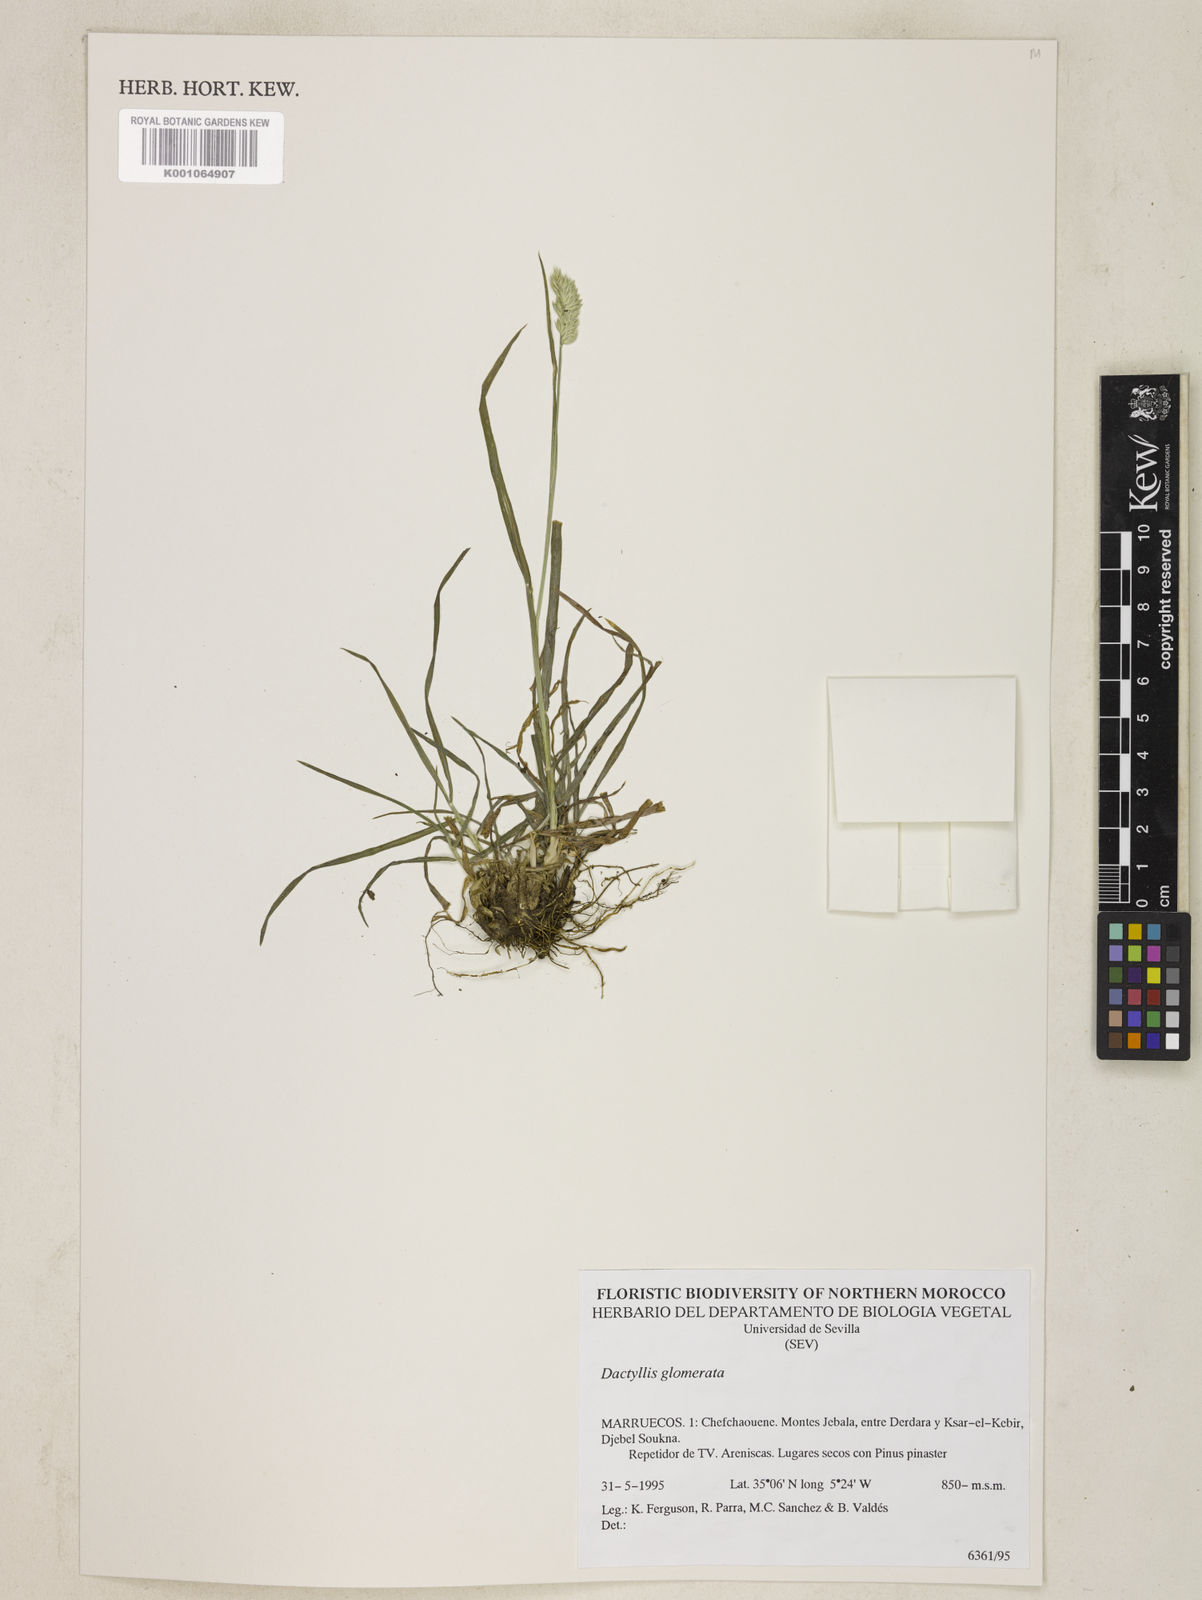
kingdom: Plantae
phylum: Tracheophyta
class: Liliopsida
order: Poales
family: Poaceae
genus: Dactylis
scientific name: Dactylis glomerata
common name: Orchardgrass
